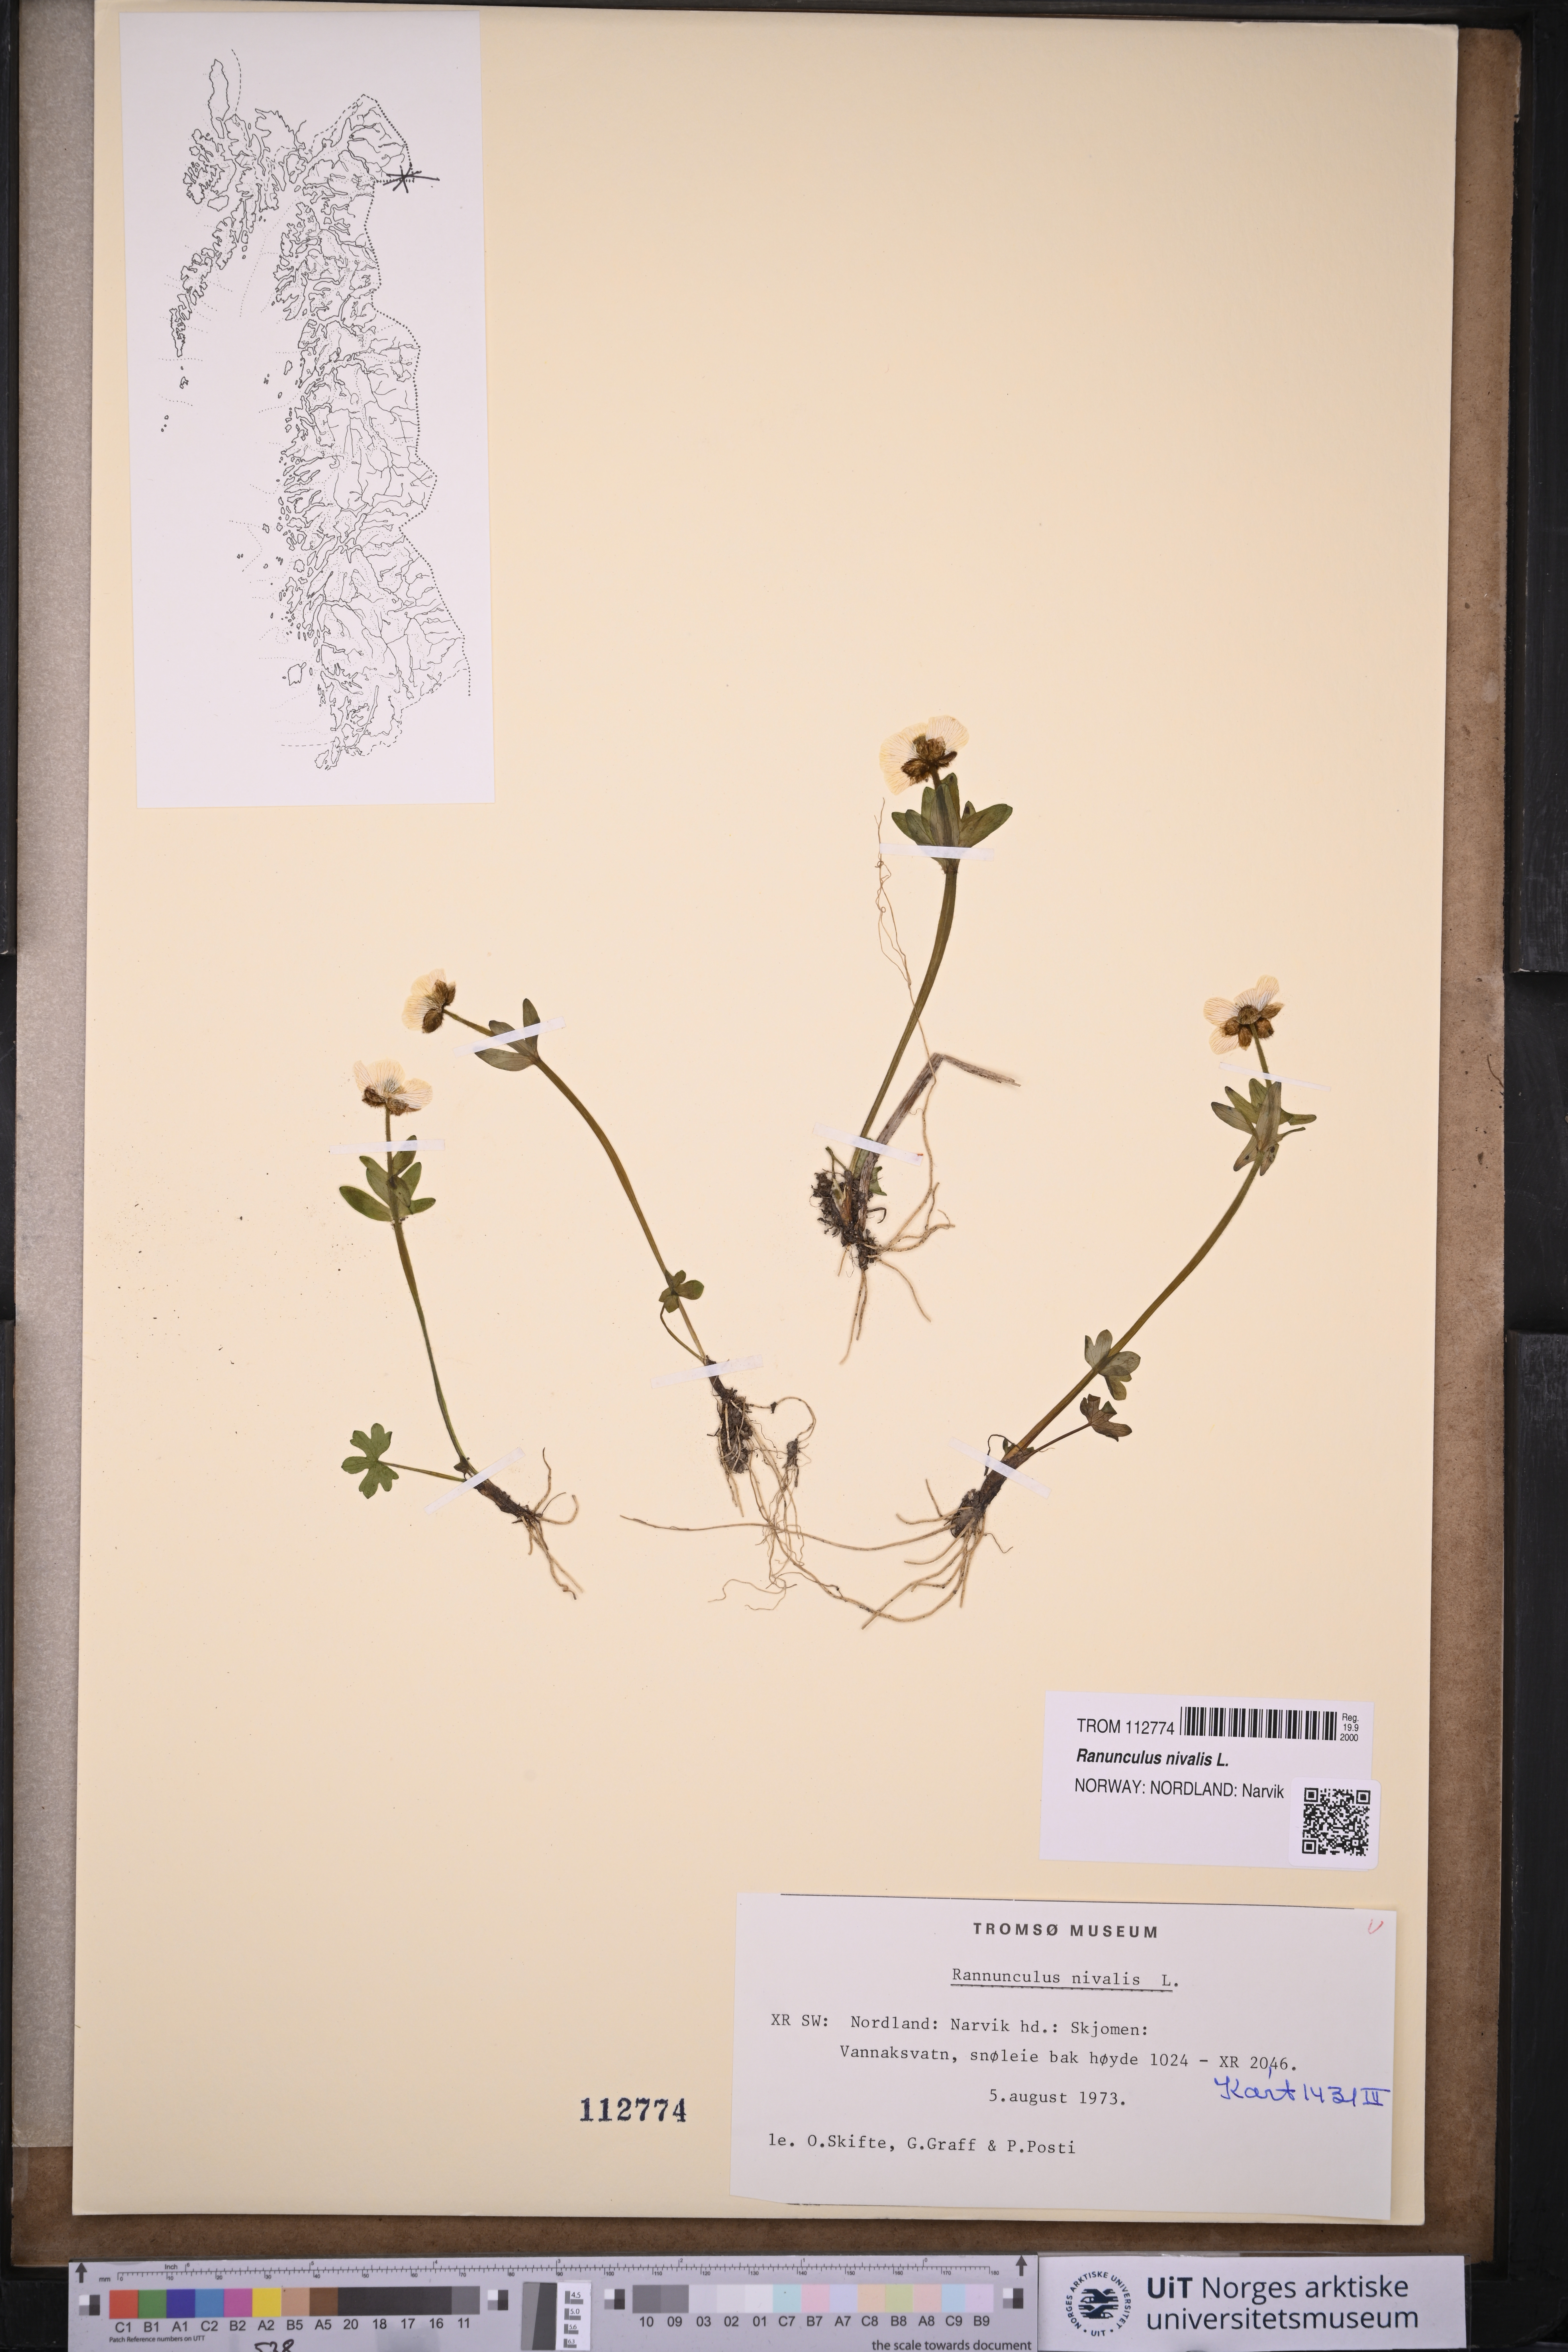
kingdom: Plantae
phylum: Tracheophyta
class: Magnoliopsida
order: Ranunculales
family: Ranunculaceae
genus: Ranunculus
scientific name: Ranunculus nivalis
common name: Snow buttercup
